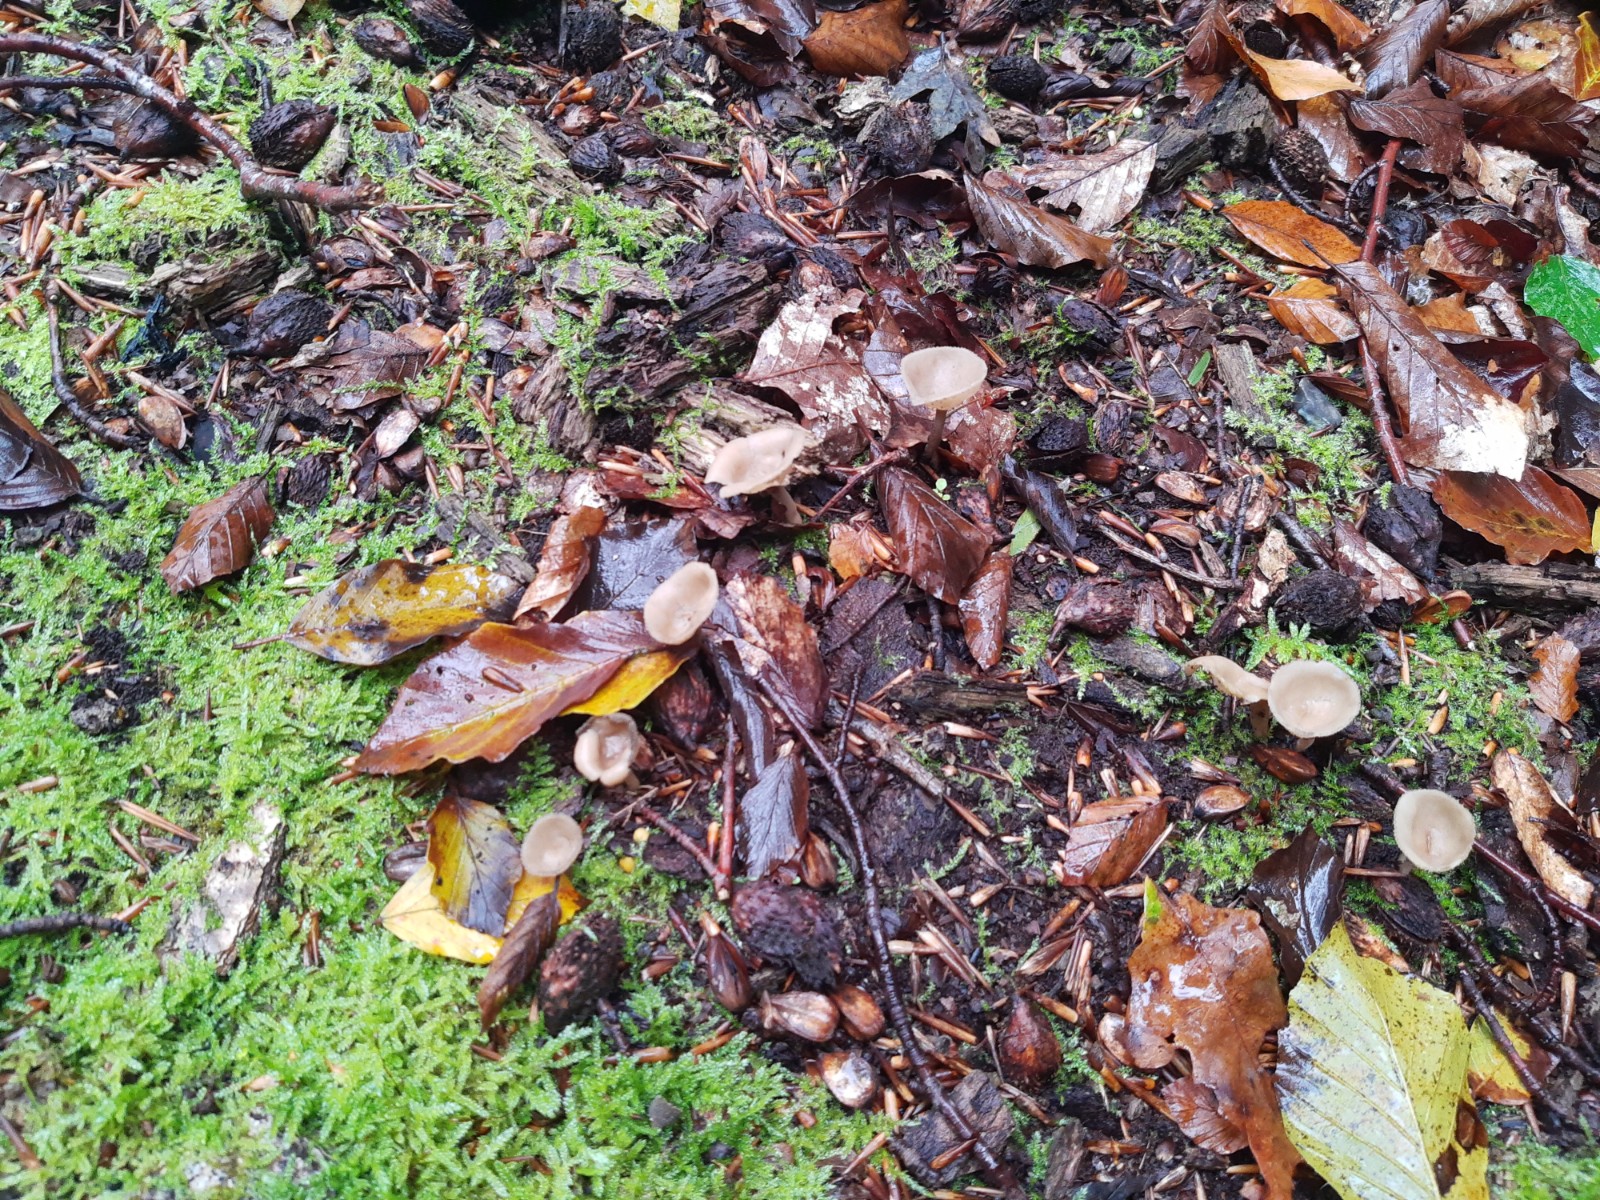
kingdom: Fungi
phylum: Ascomycota
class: Pezizomycetes
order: Pezizales
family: Helvellaceae
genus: Helvella
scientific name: Helvella macropus
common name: højstokket foldhat
